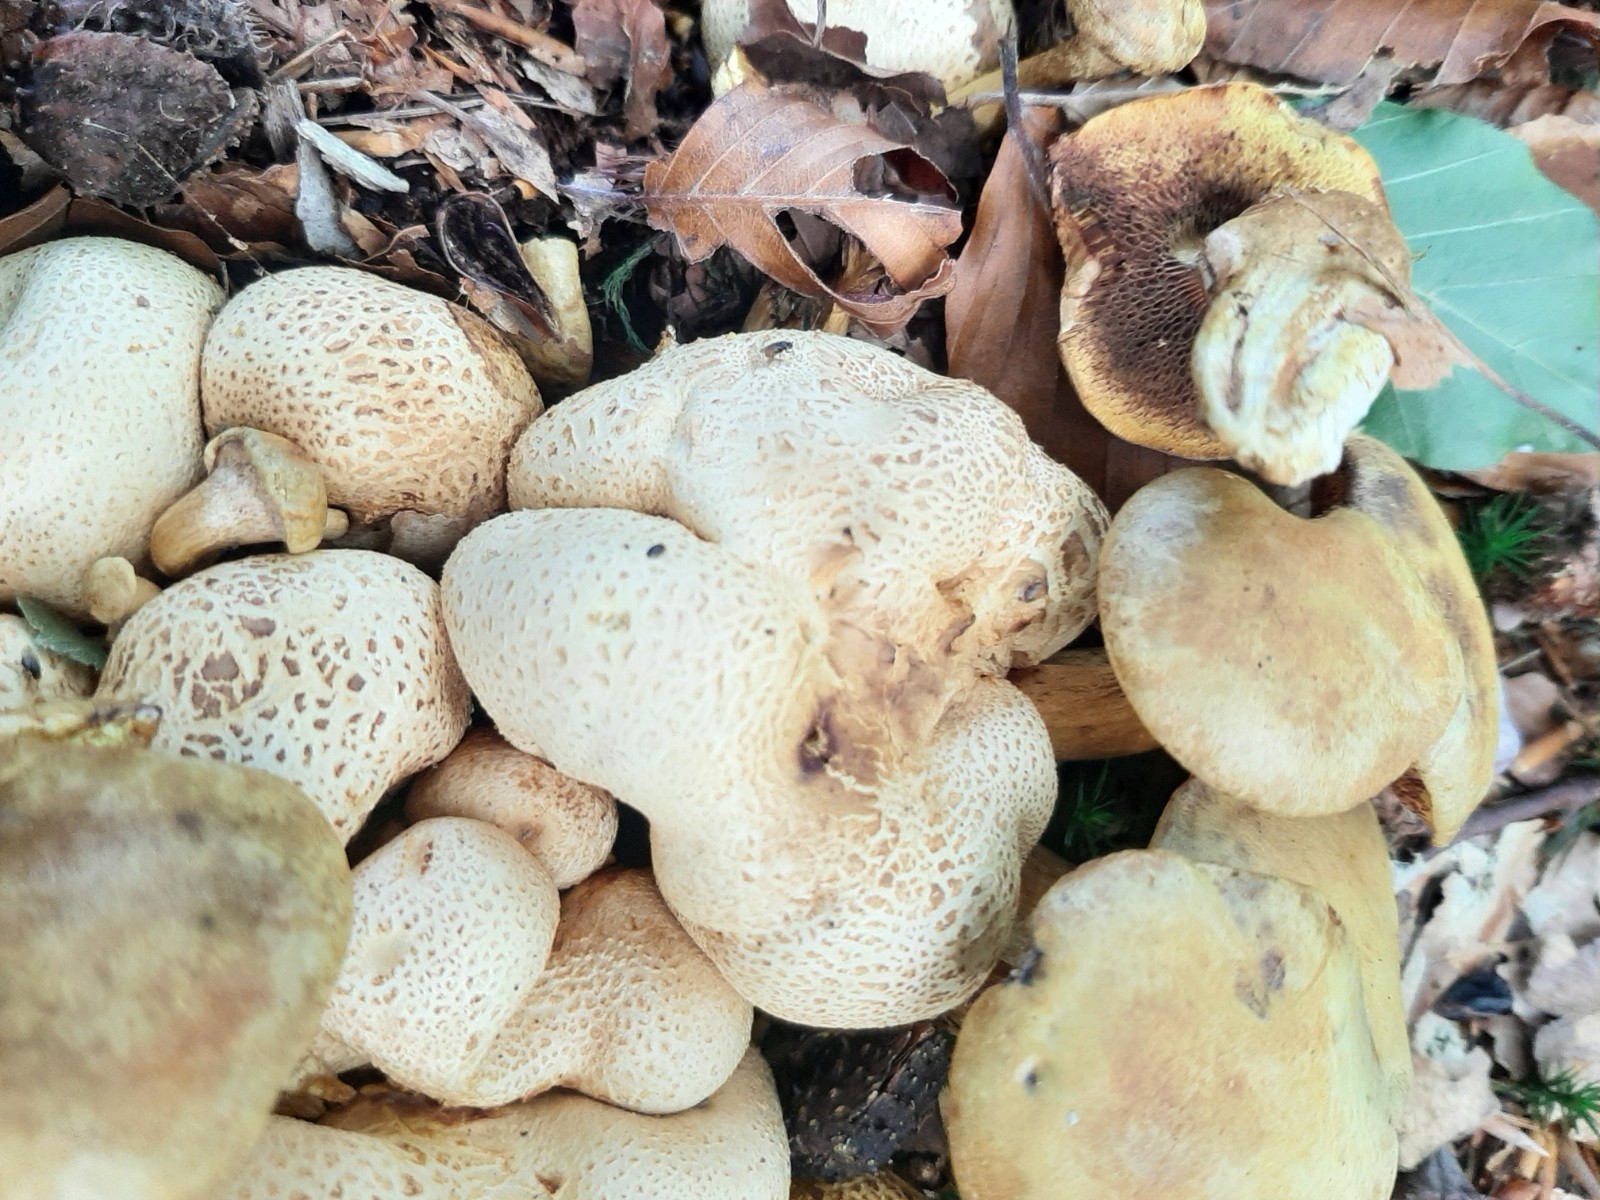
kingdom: Fungi
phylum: Basidiomycota
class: Agaricomycetes
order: Boletales
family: Boletaceae
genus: Pseudoboletus
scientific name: Pseudoboletus parasiticus
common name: snyltende rørhat
